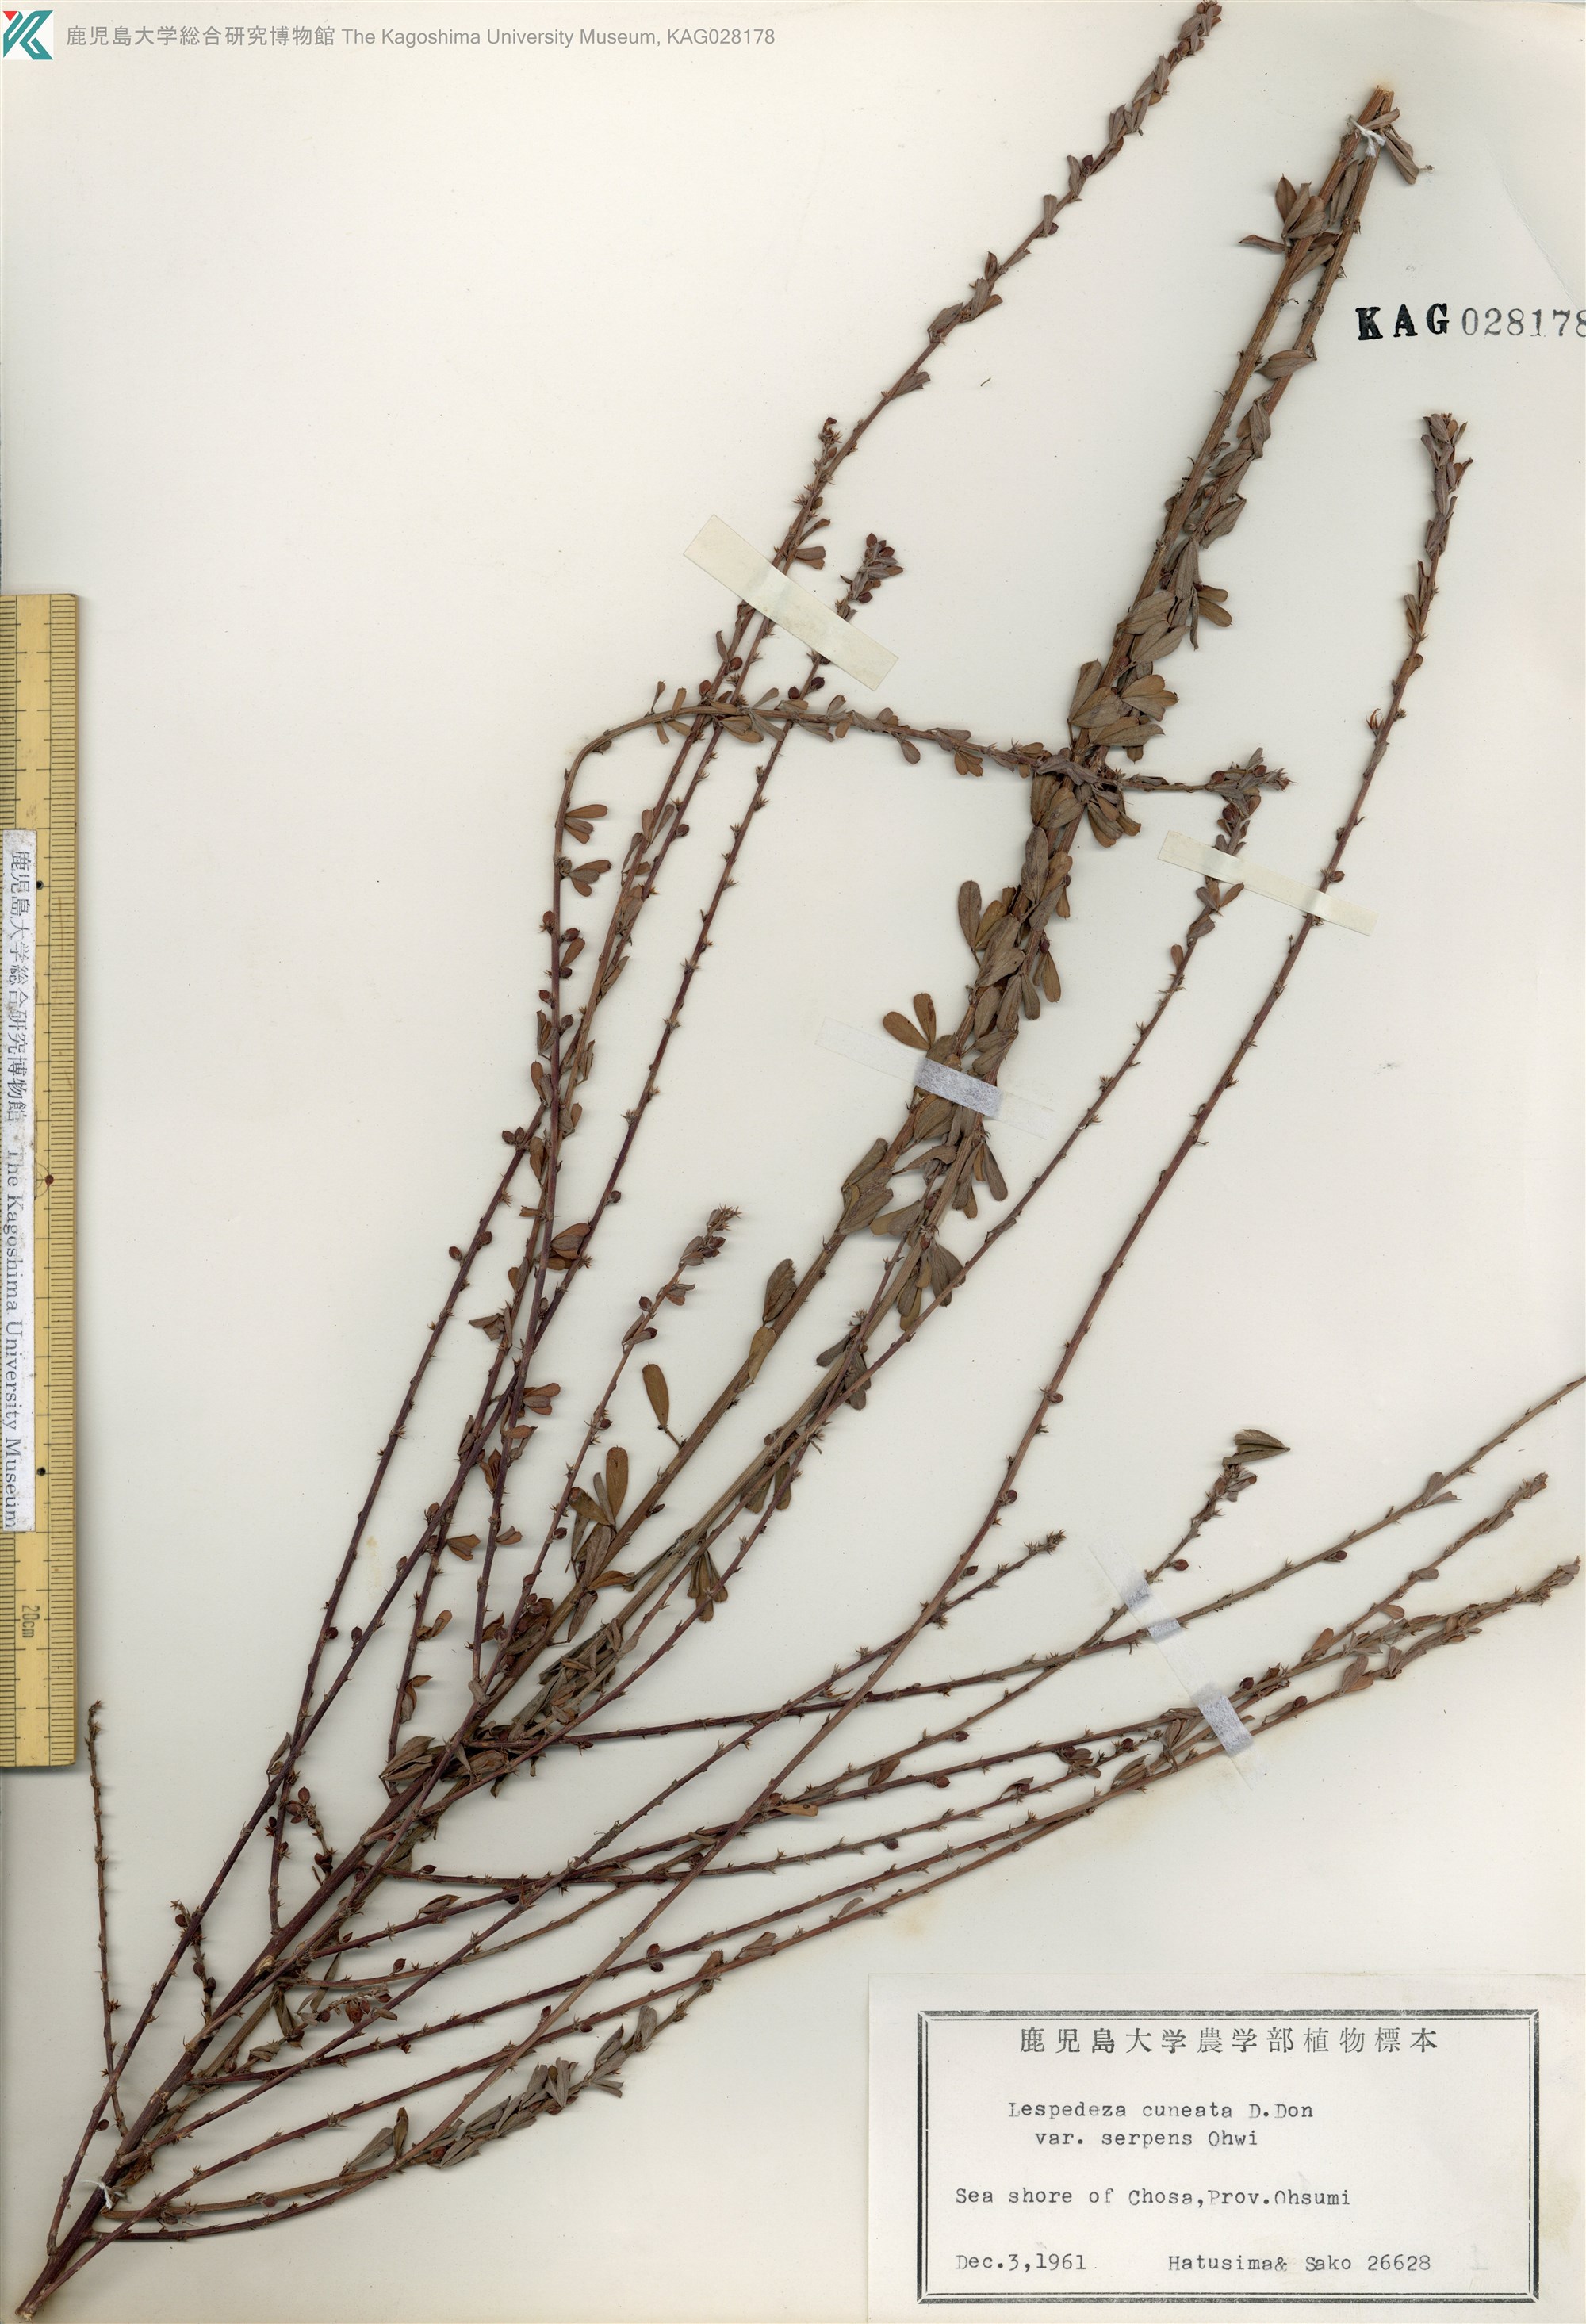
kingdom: Plantae
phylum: Tracheophyta
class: Magnoliopsida
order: Fabales
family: Fabaceae
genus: Lespedeza
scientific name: Lespedeza cuneata
